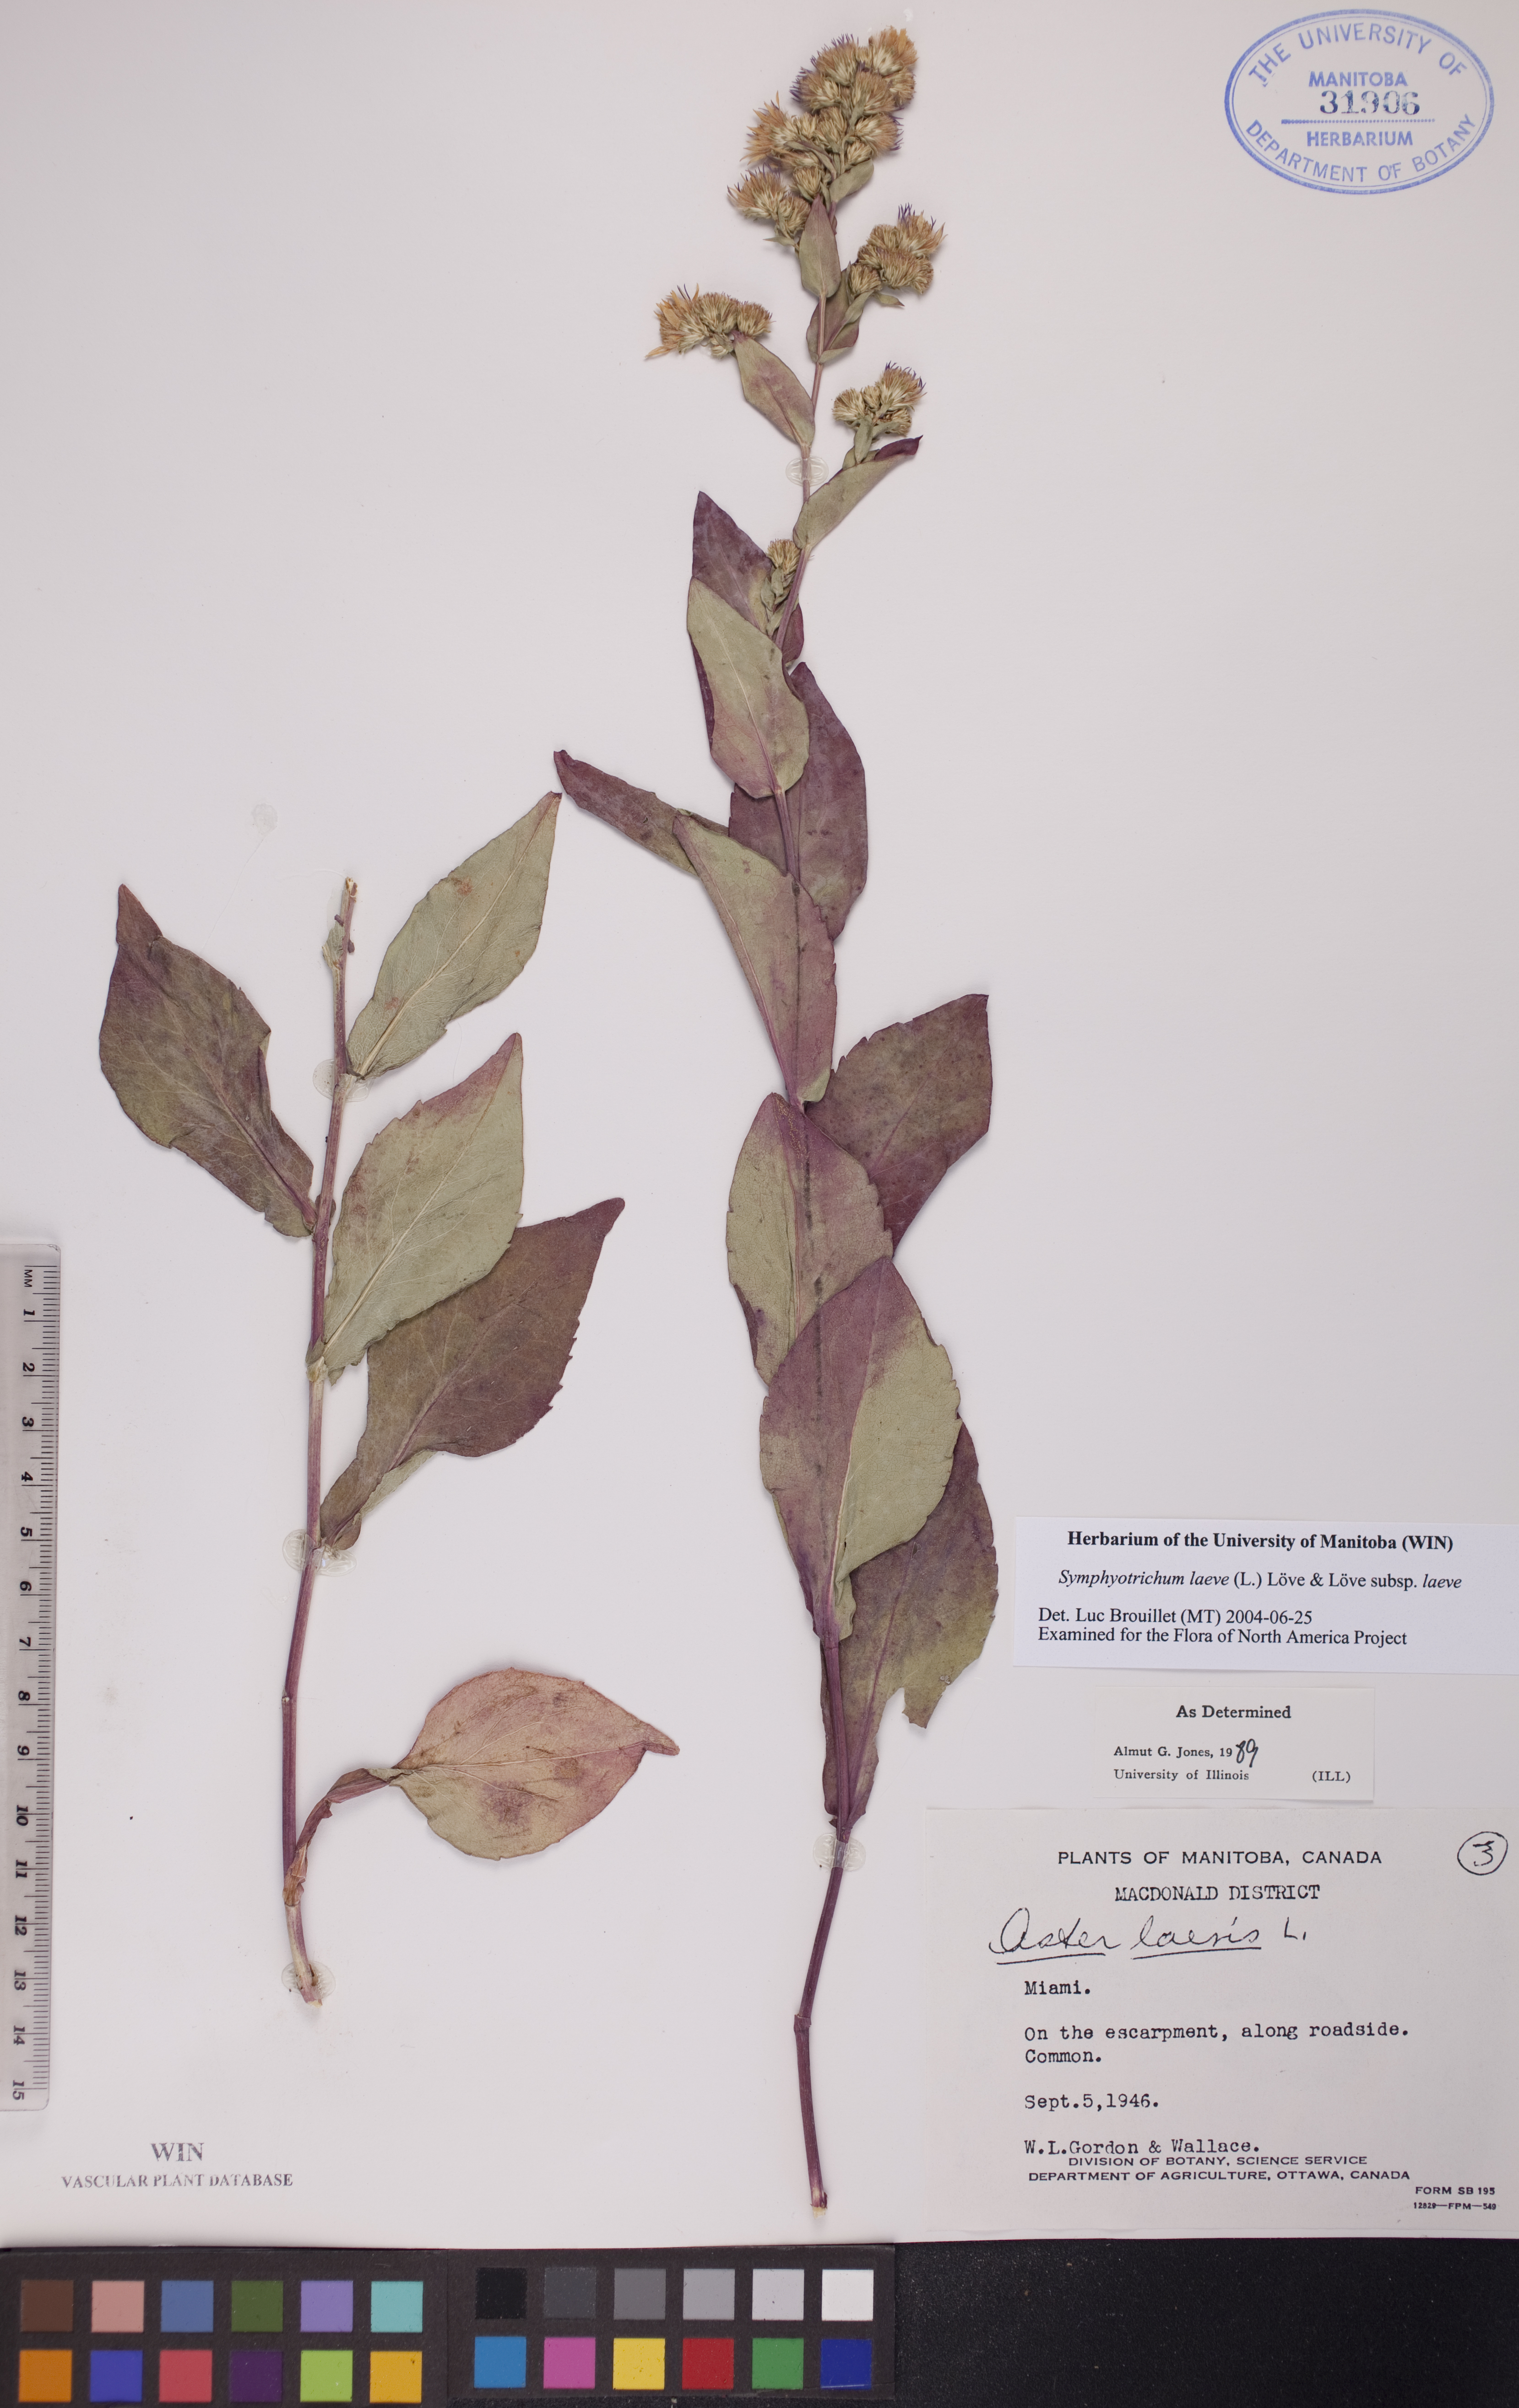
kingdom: Plantae
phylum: Tracheophyta
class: Magnoliopsida
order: Asterales
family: Asteraceae
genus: Symphyotrichum
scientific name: Symphyotrichum laeve
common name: Glaucous aster
